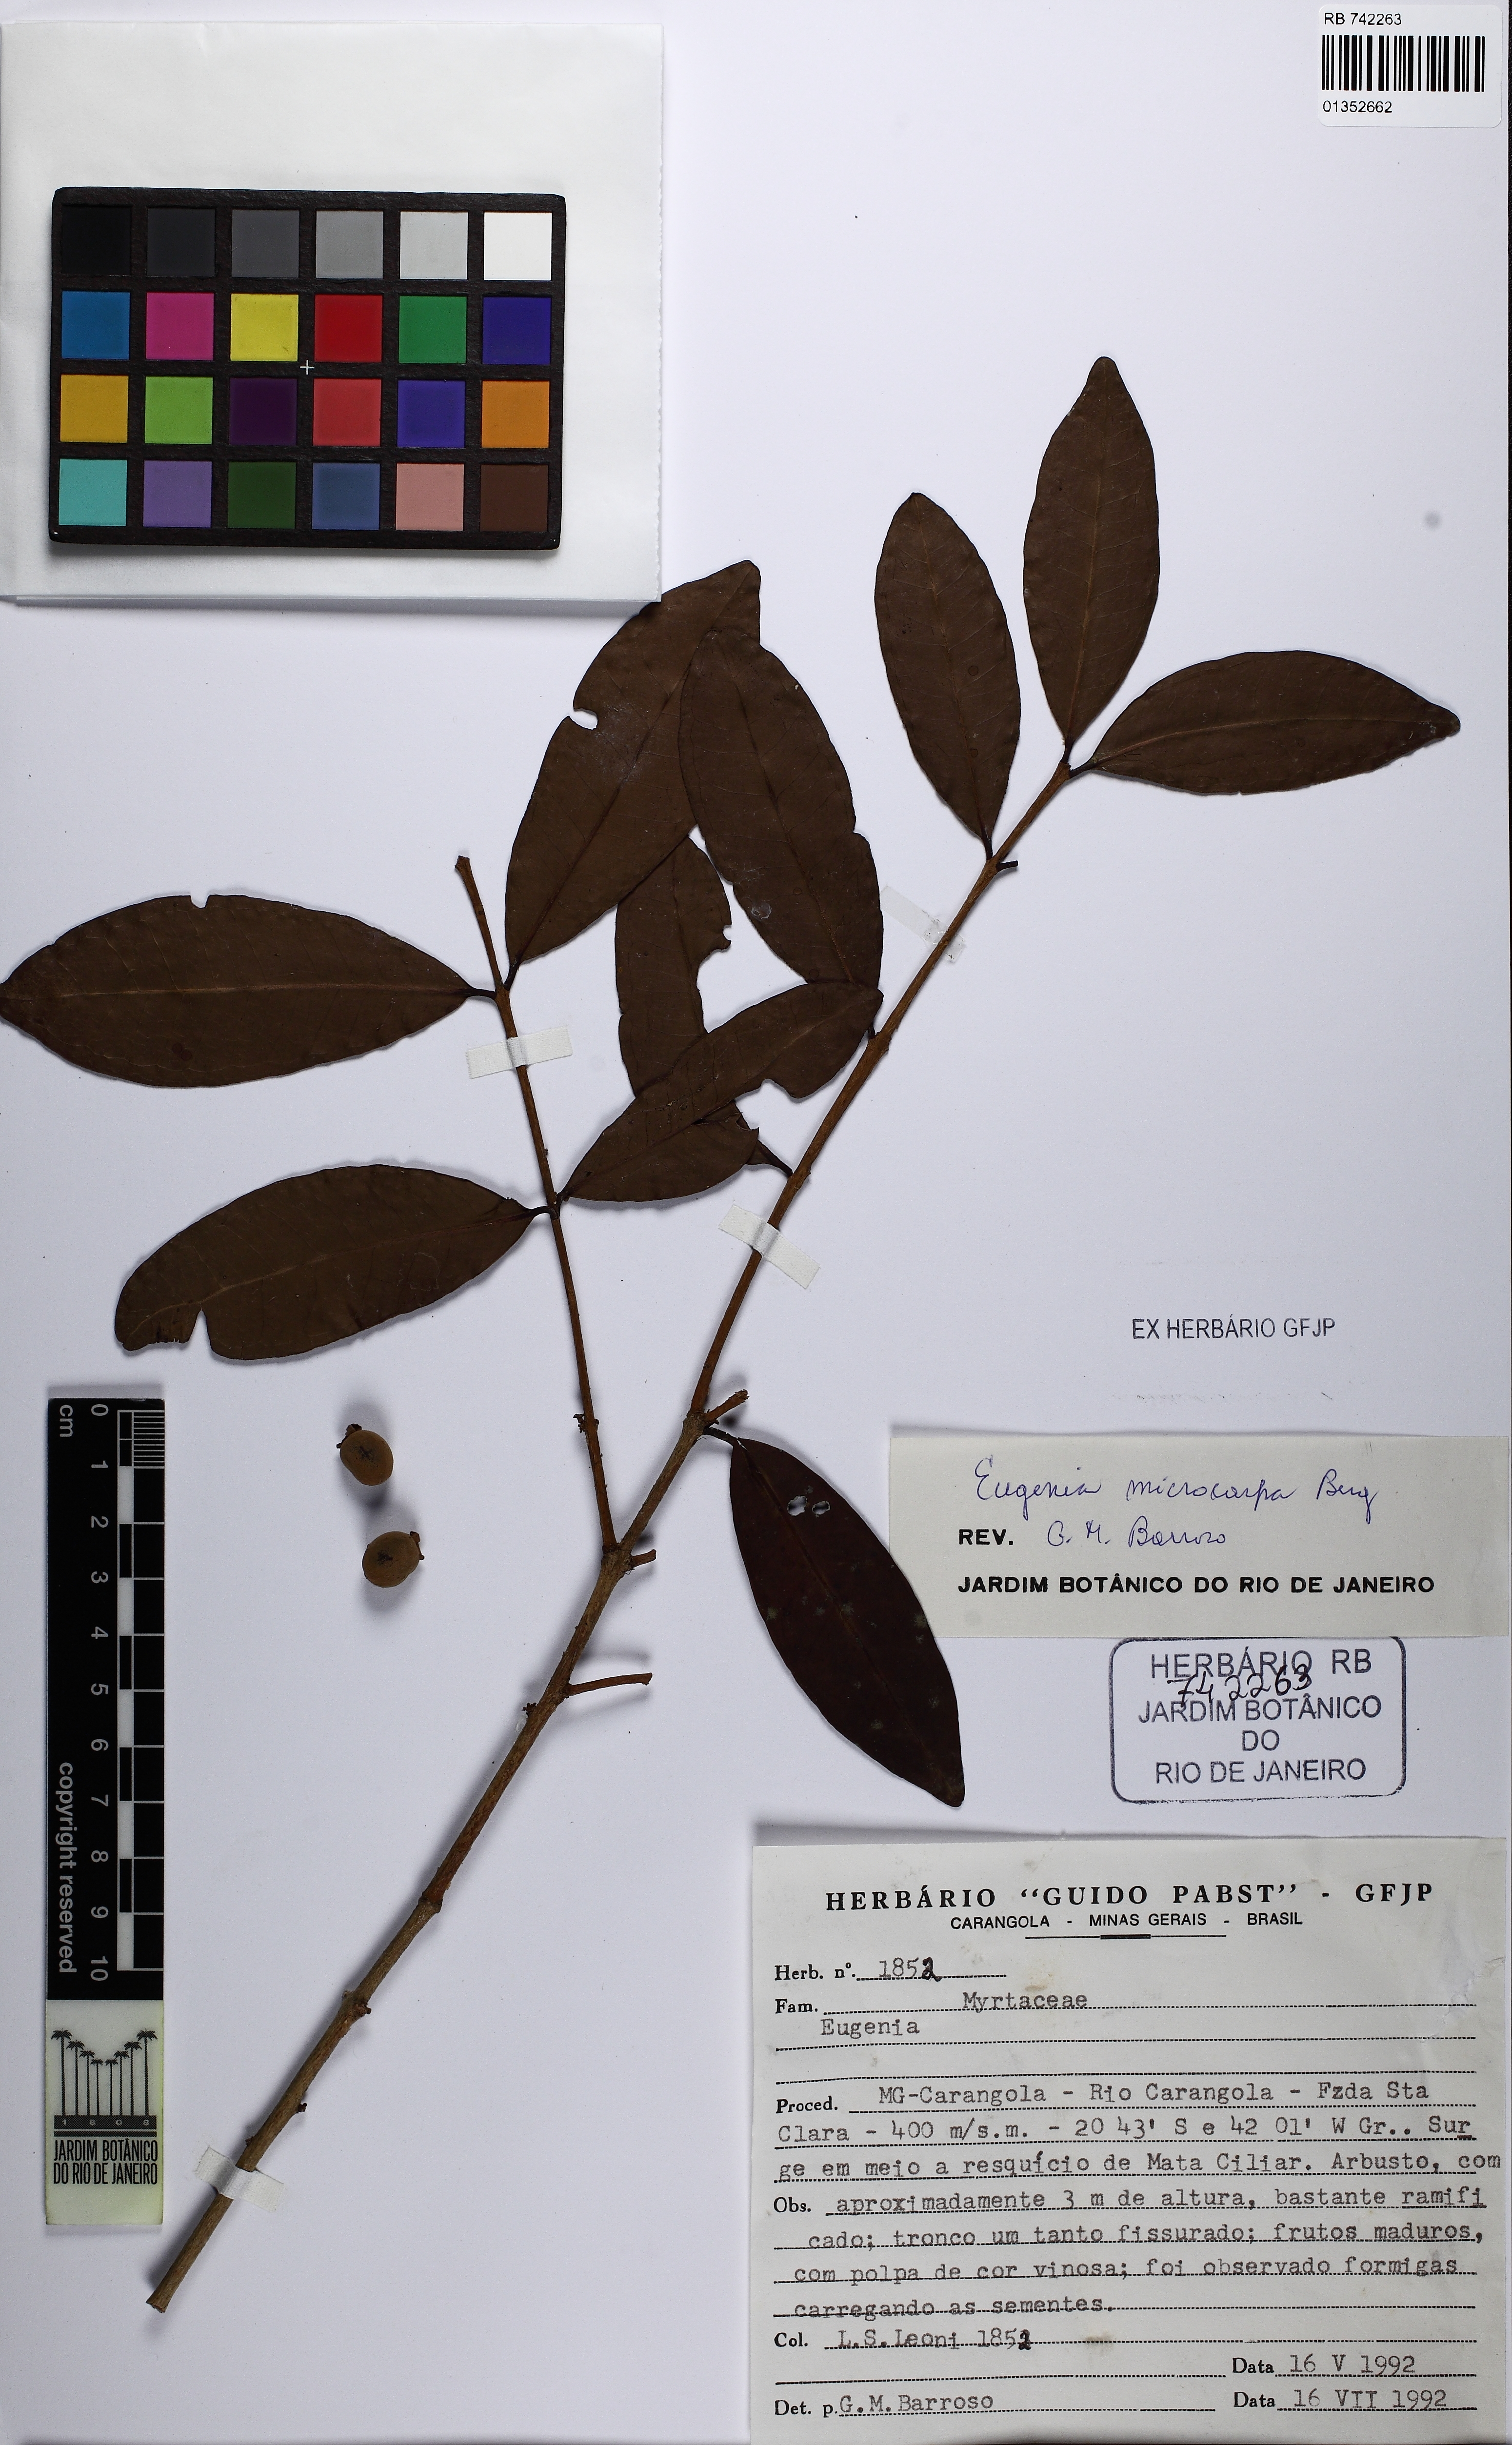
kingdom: Plantae
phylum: Tracheophyta
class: Magnoliopsida
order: Myrtales
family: Myrtaceae
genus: Eugenia
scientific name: Eugenia microcarpa
